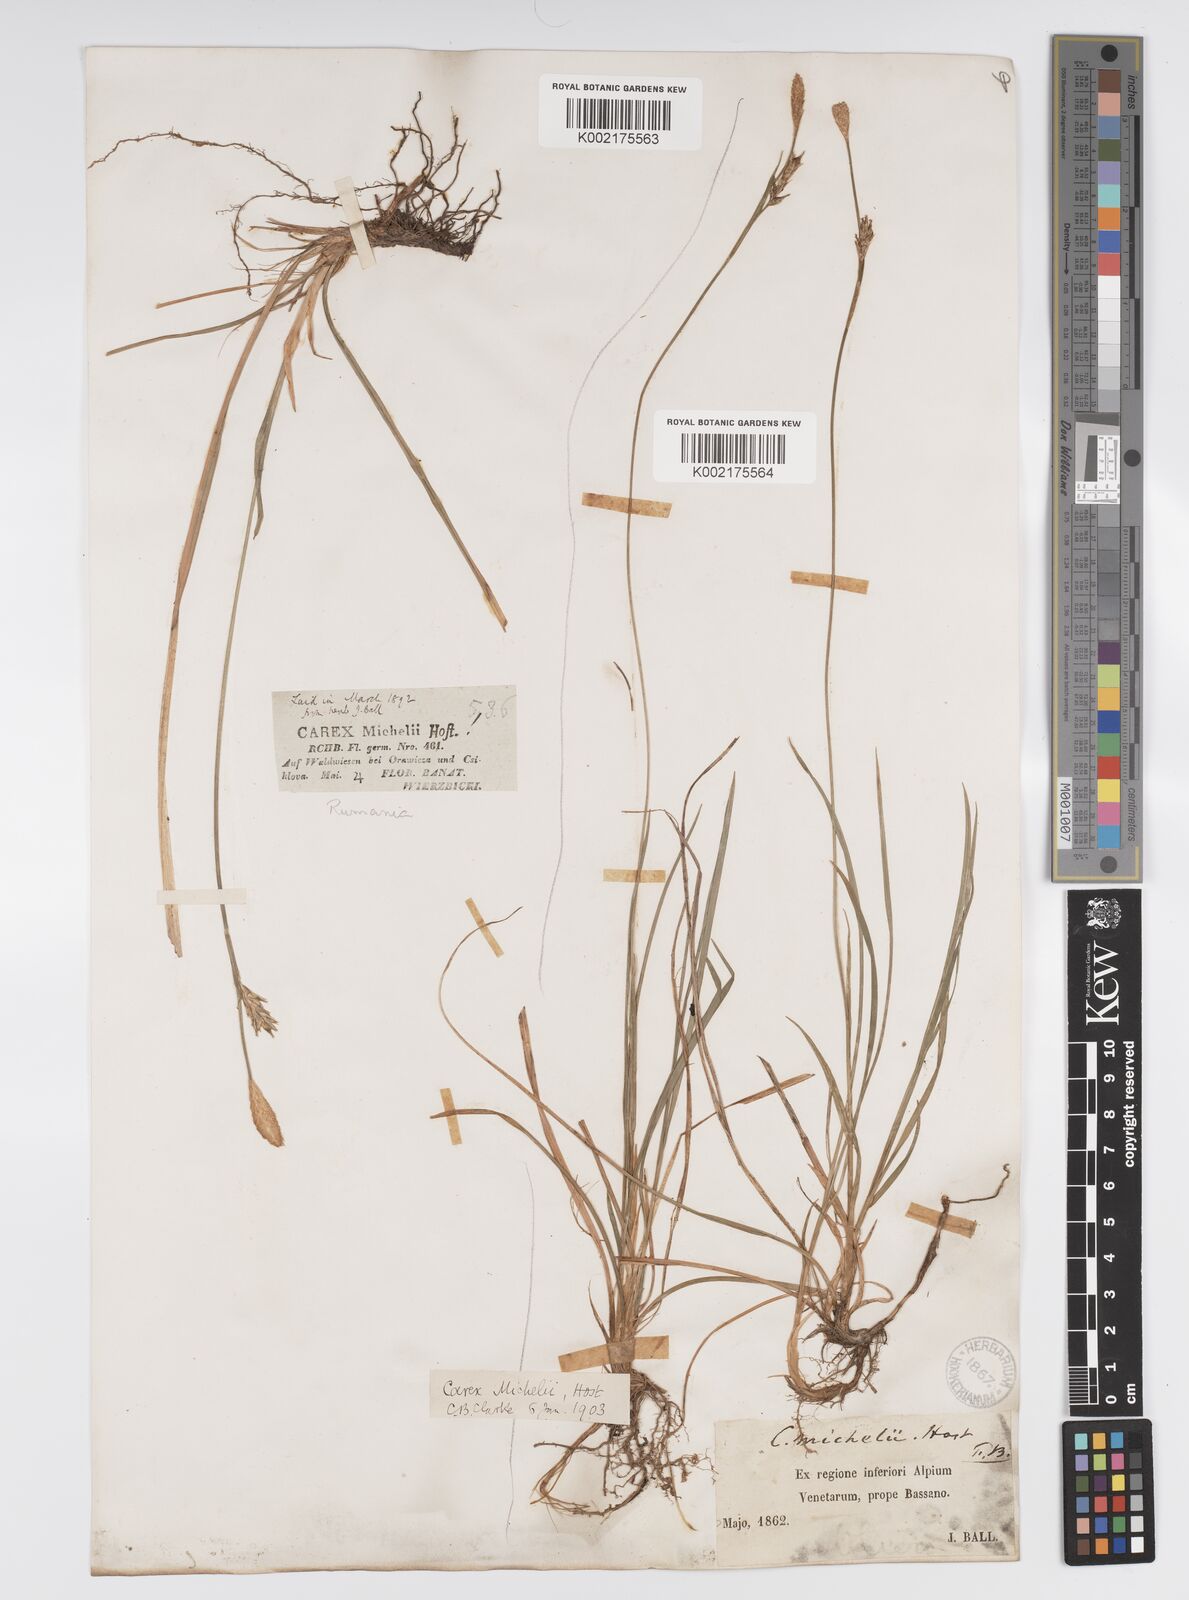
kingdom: Plantae
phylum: Tracheophyta
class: Liliopsida
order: Poales
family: Cyperaceae
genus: Carex
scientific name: Carex michelii
